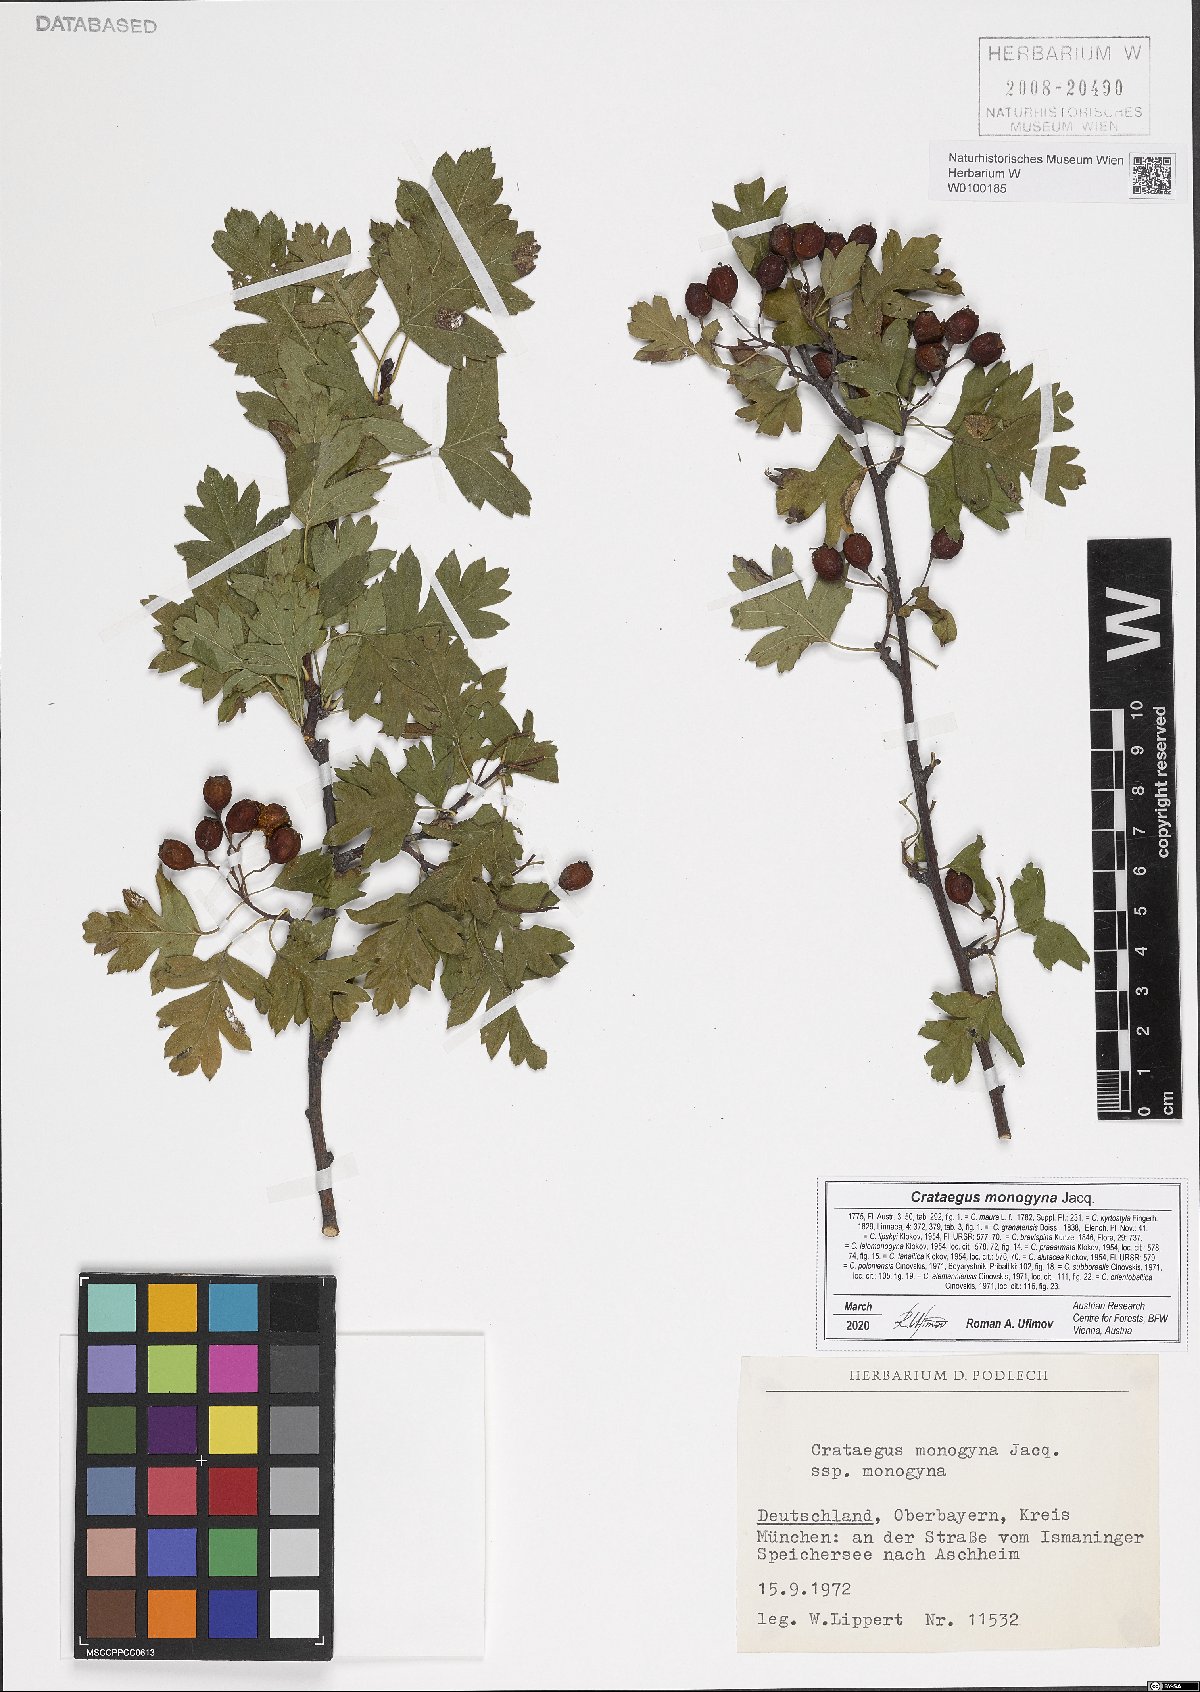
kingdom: Plantae
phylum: Tracheophyta
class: Magnoliopsida
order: Rosales
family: Rosaceae
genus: Crataegus
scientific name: Crataegus monogyna
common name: Hawthorn
